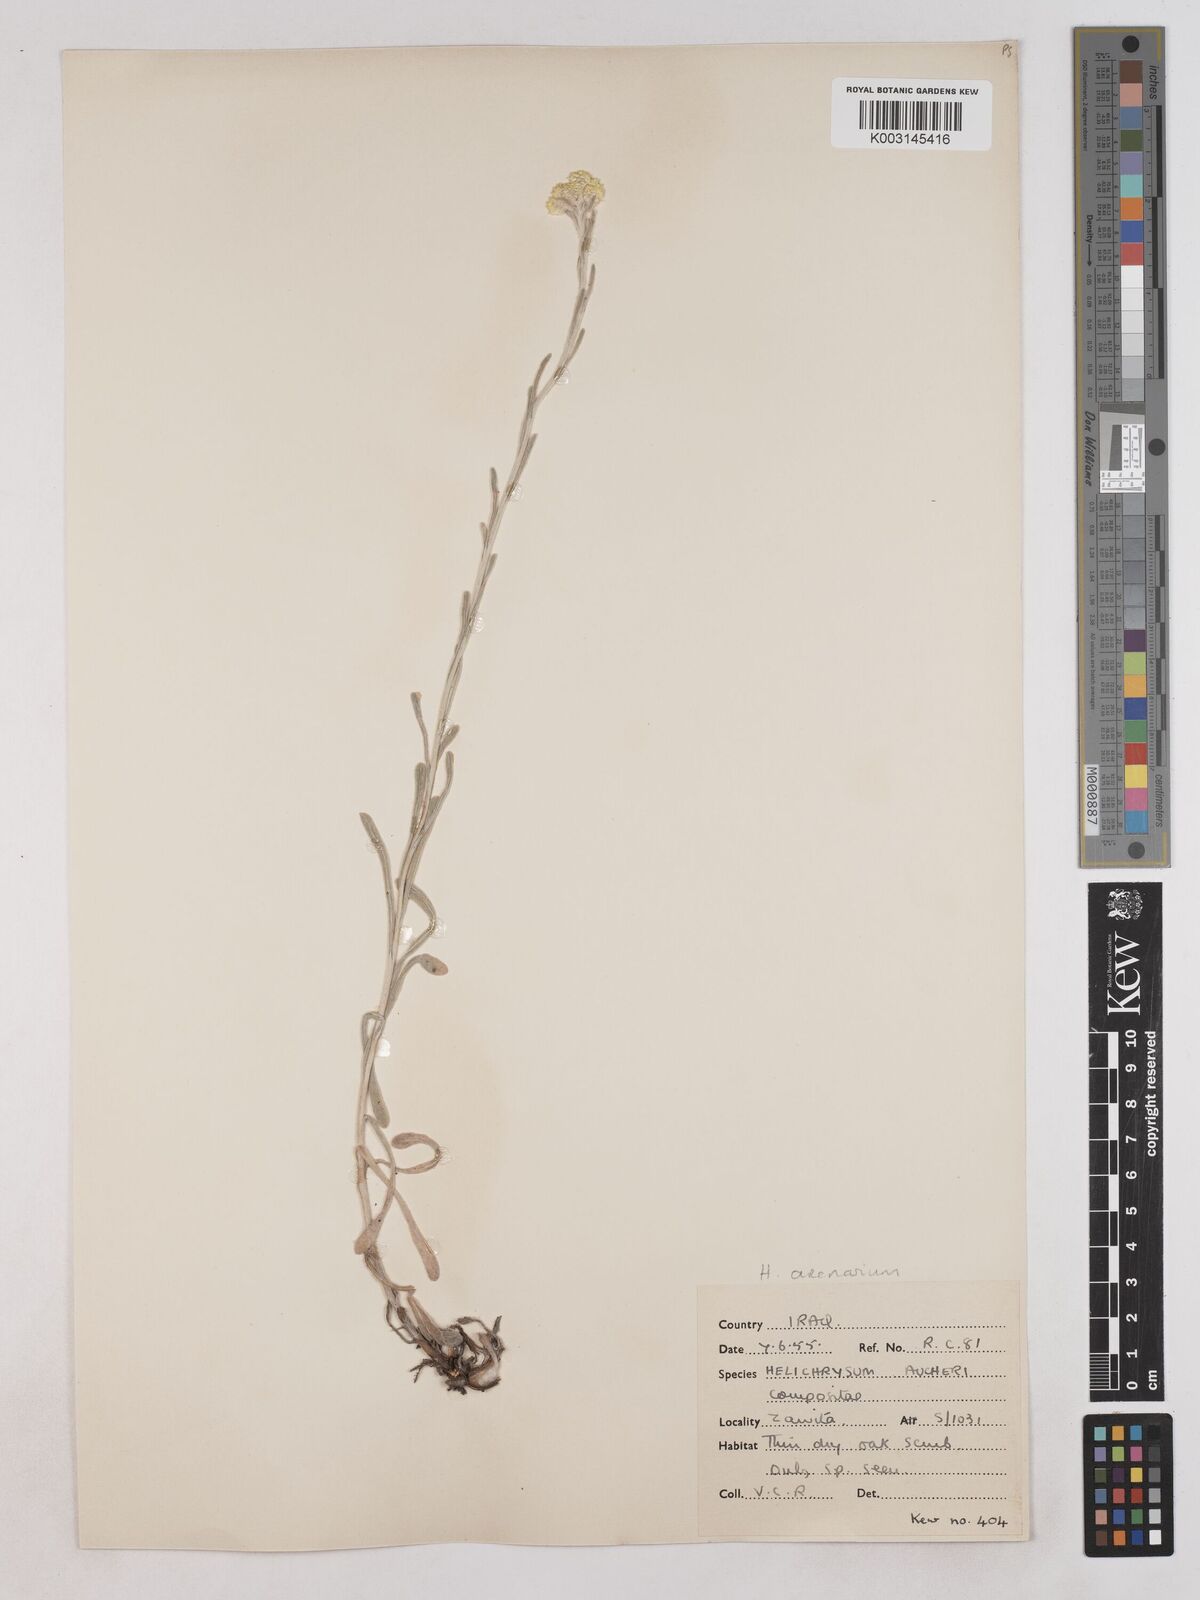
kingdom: Plantae
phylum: Tracheophyta
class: Magnoliopsida
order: Asterales
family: Asteraceae
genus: Helichrysum
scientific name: Helichrysum arenarium
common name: Strawflower
